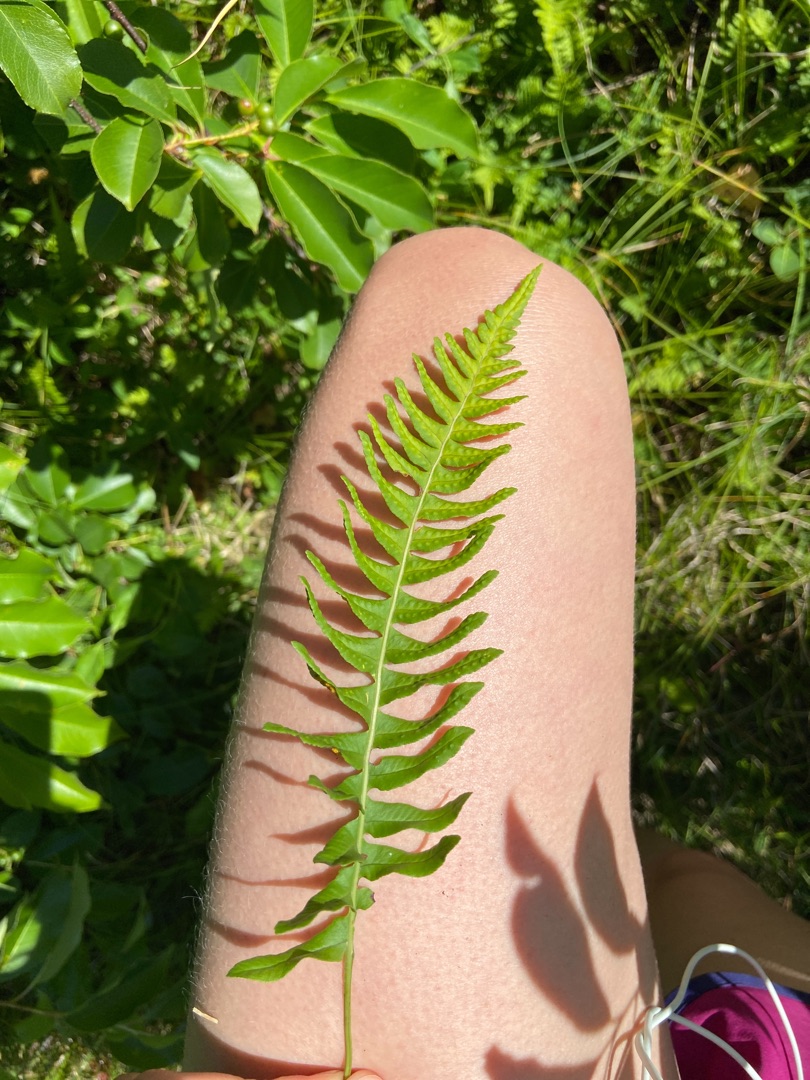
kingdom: Plantae
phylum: Tracheophyta
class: Polypodiopsida
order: Polypodiales
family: Polypodiaceae
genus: Polypodium
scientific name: Polypodium vulgare
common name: Almindelig engelsød
